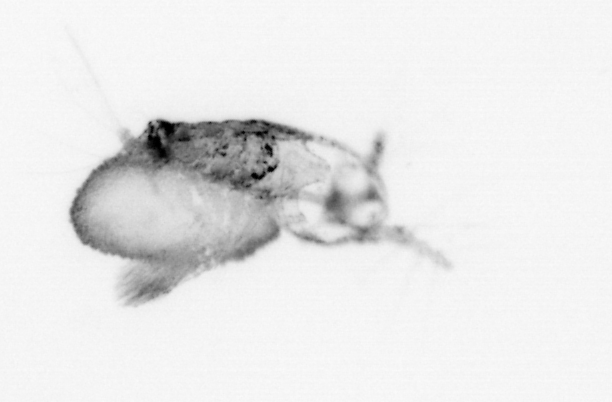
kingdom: Animalia
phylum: Arthropoda
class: Copepoda
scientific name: Copepoda
